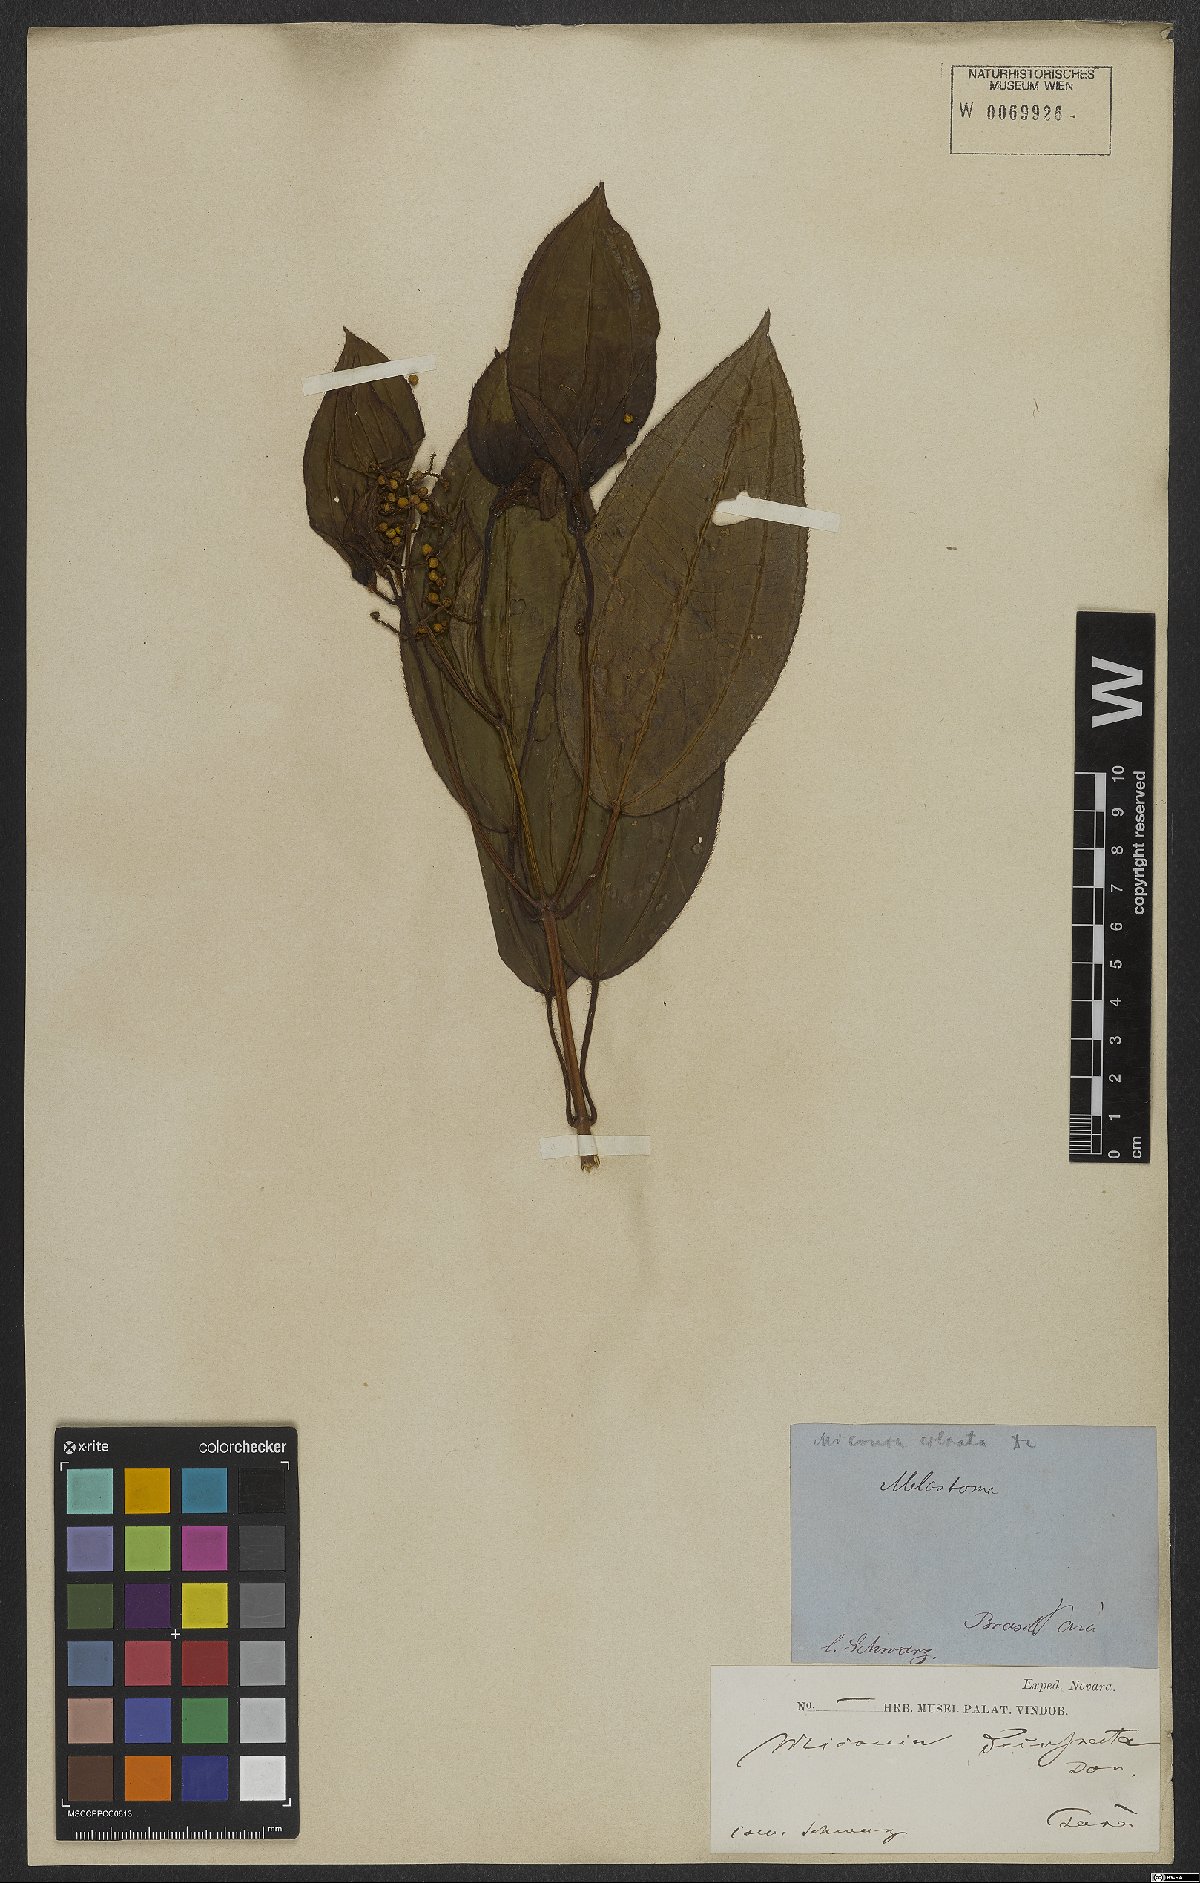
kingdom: Plantae
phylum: Tracheophyta
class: Magnoliopsida
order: Myrtales
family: Melastomataceae
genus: Miconia
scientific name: Miconia ciliata
